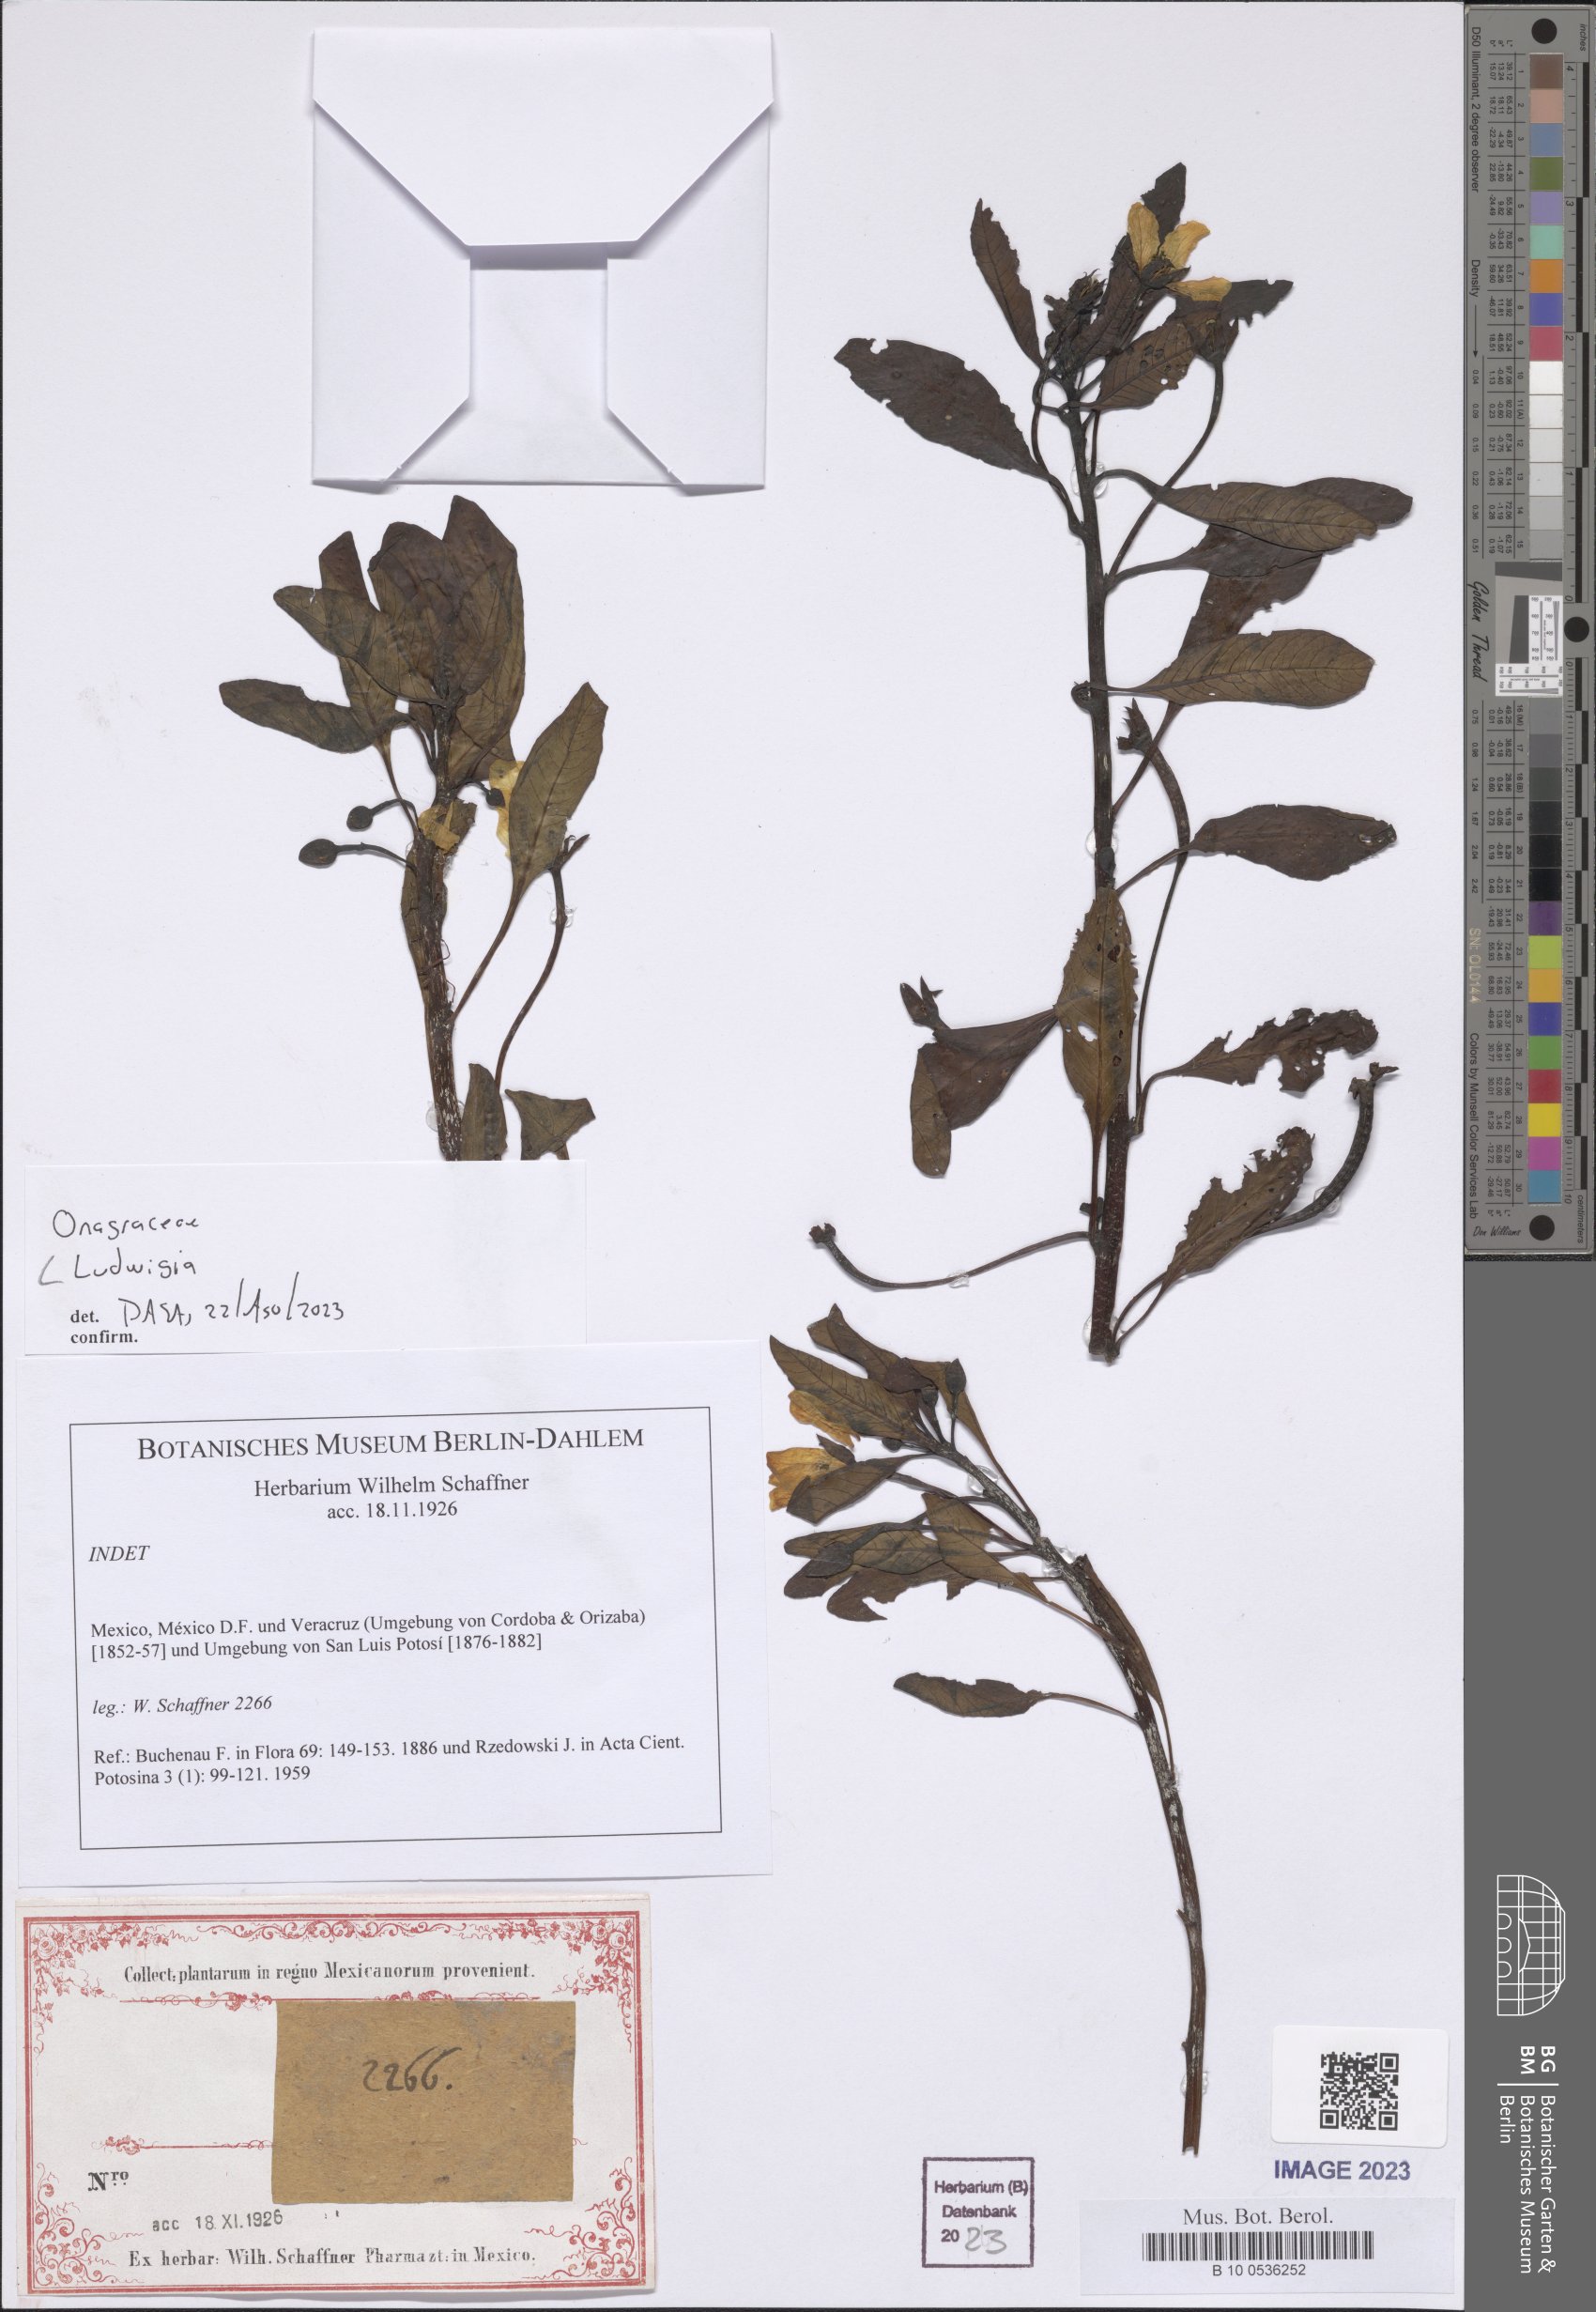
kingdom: Plantae
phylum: Tracheophyta
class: Magnoliopsida
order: Myrtales
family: Onagraceae
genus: Ludwigia
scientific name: Ludwigia
